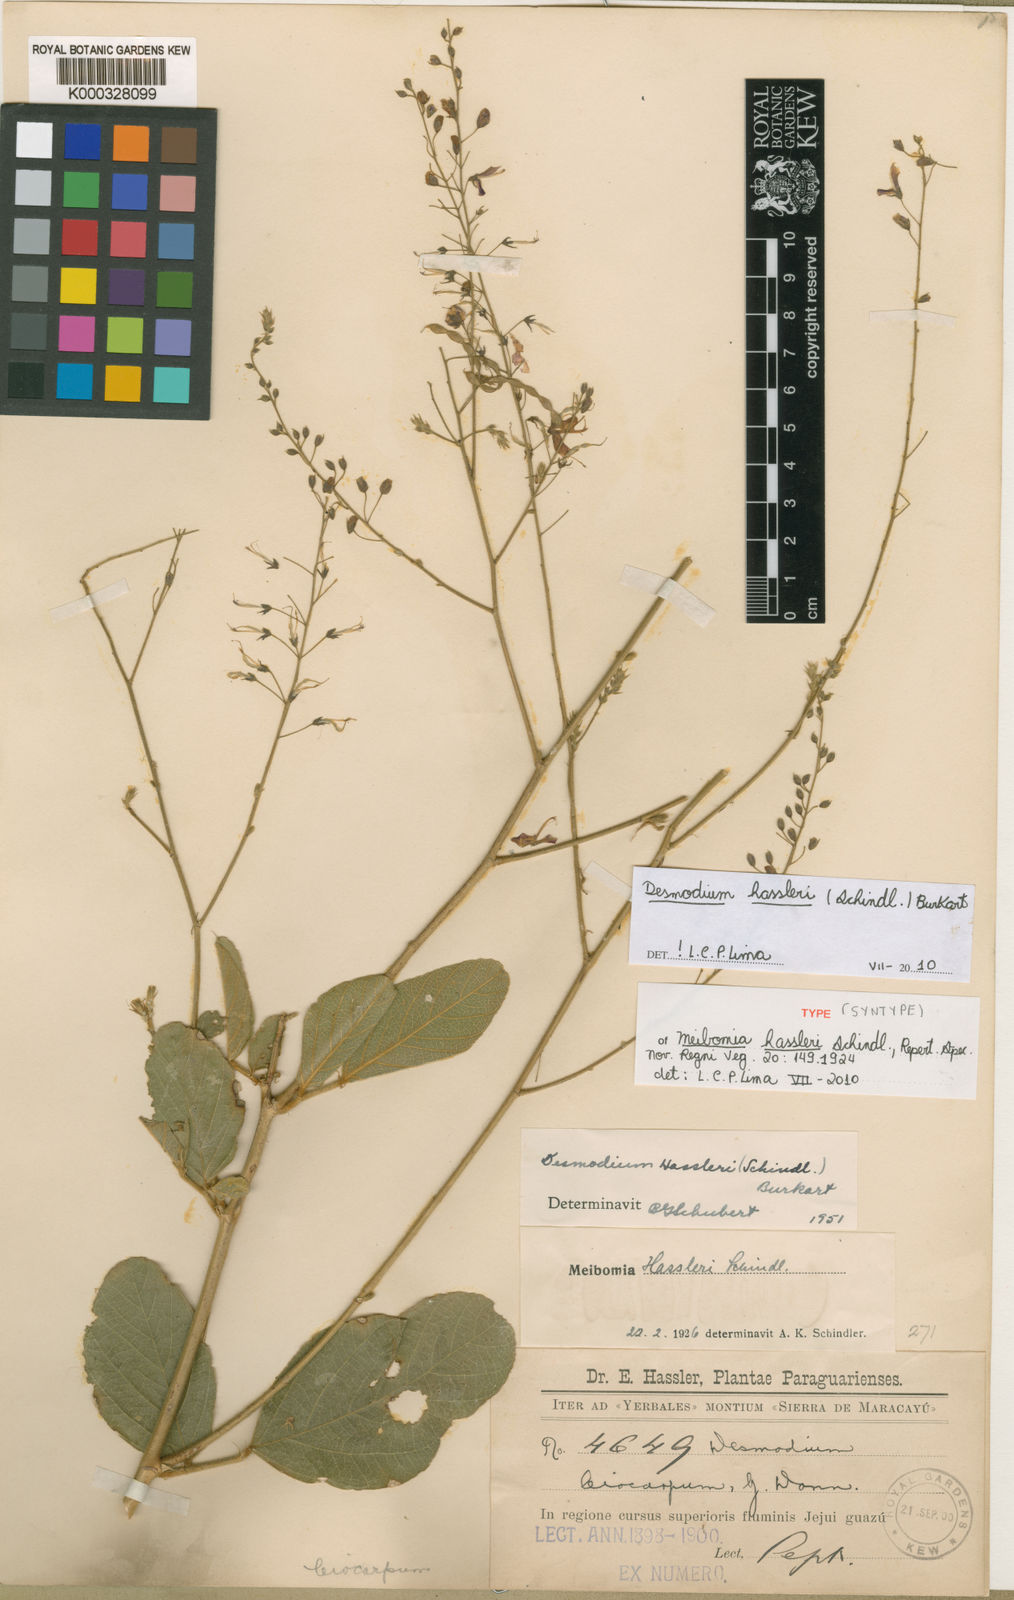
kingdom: Plantae
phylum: Tracheophyta
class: Magnoliopsida
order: Fabales
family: Fabaceae
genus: Desmodium
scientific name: Desmodium hassleri
